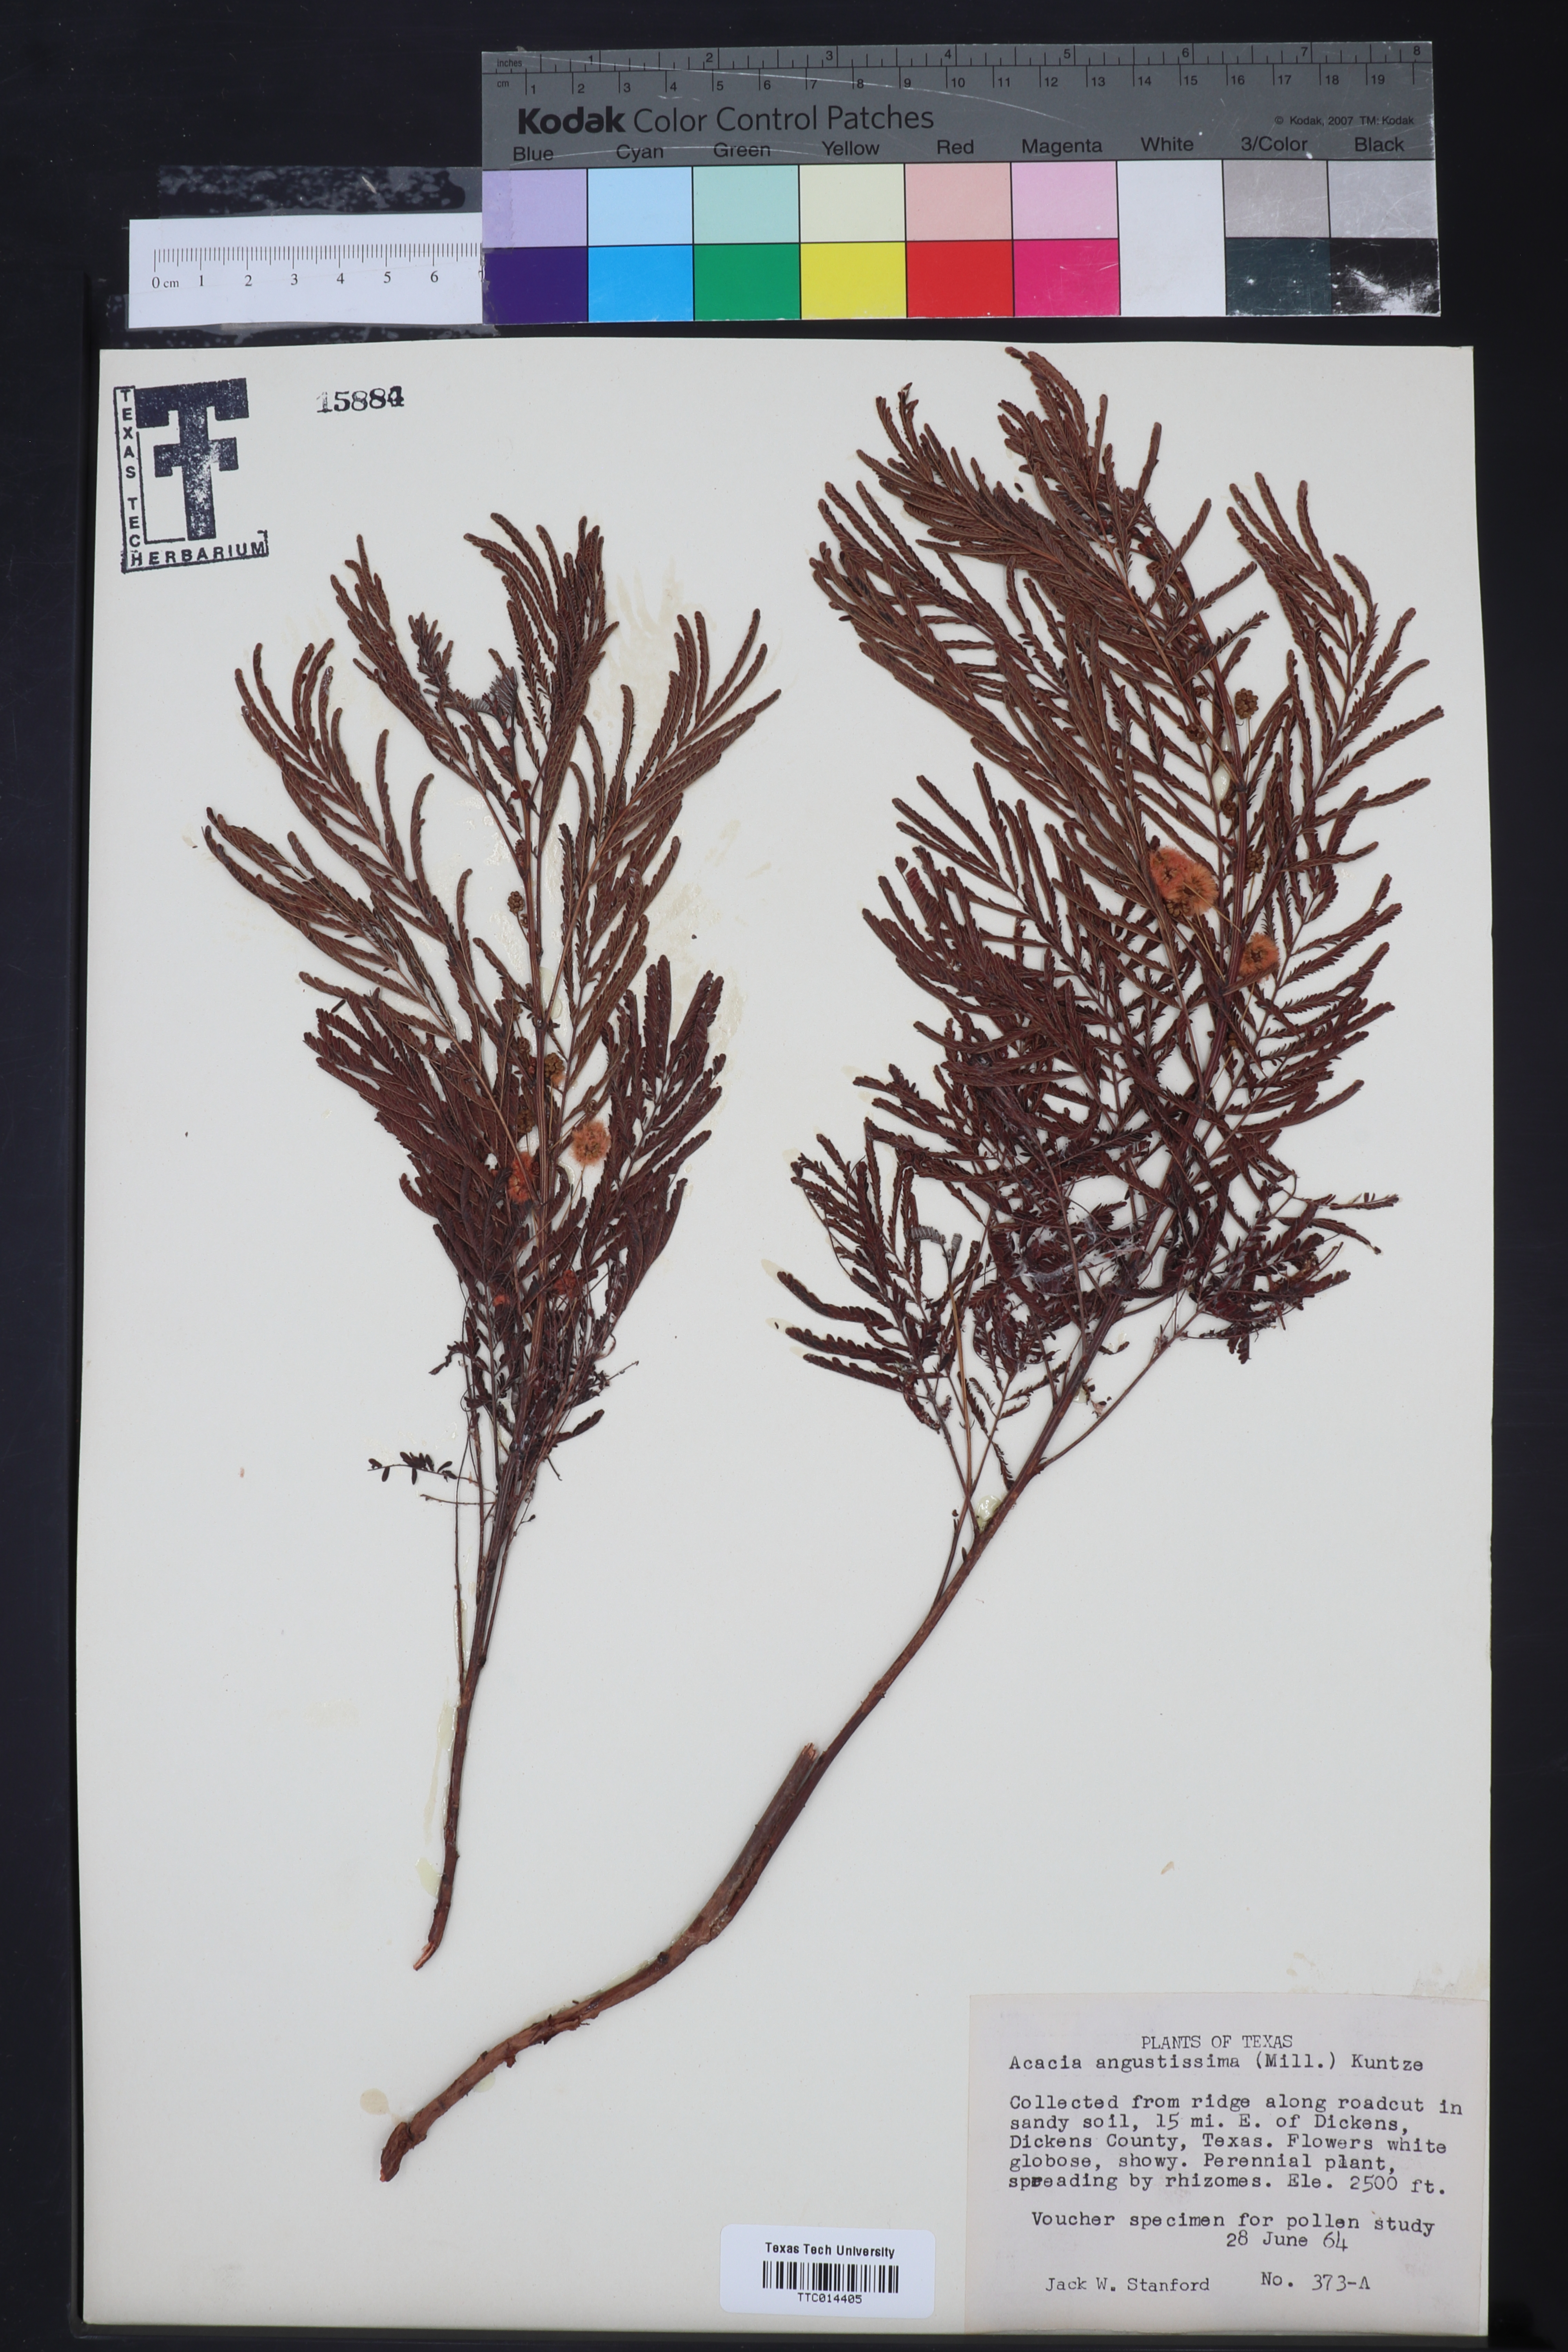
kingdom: Plantae
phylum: Tracheophyta
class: Magnoliopsida
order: Fabales
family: Fabaceae
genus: Acaciella
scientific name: Acaciella angustissima
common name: Prairie acacia
